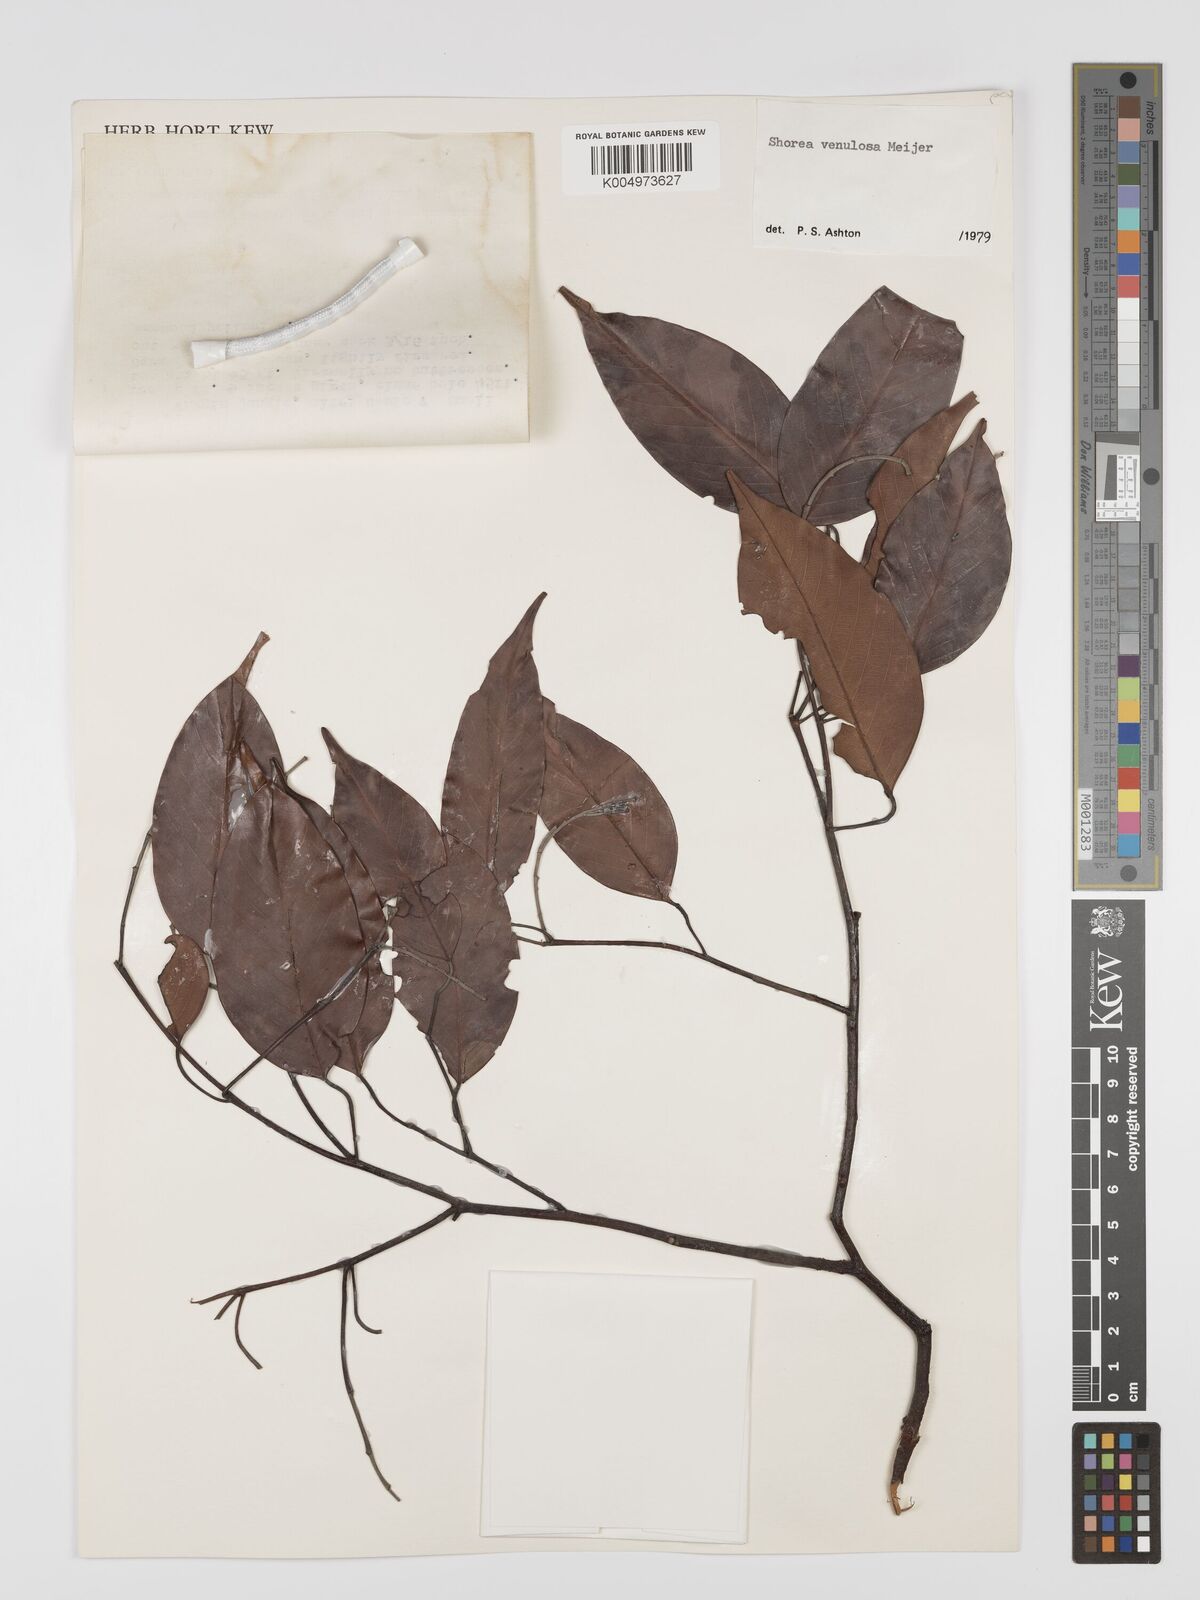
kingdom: Plantae
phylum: Tracheophyta
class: Magnoliopsida
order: Malvales
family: Dipterocarpaceae
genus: Shorea
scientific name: Shorea venulosa
